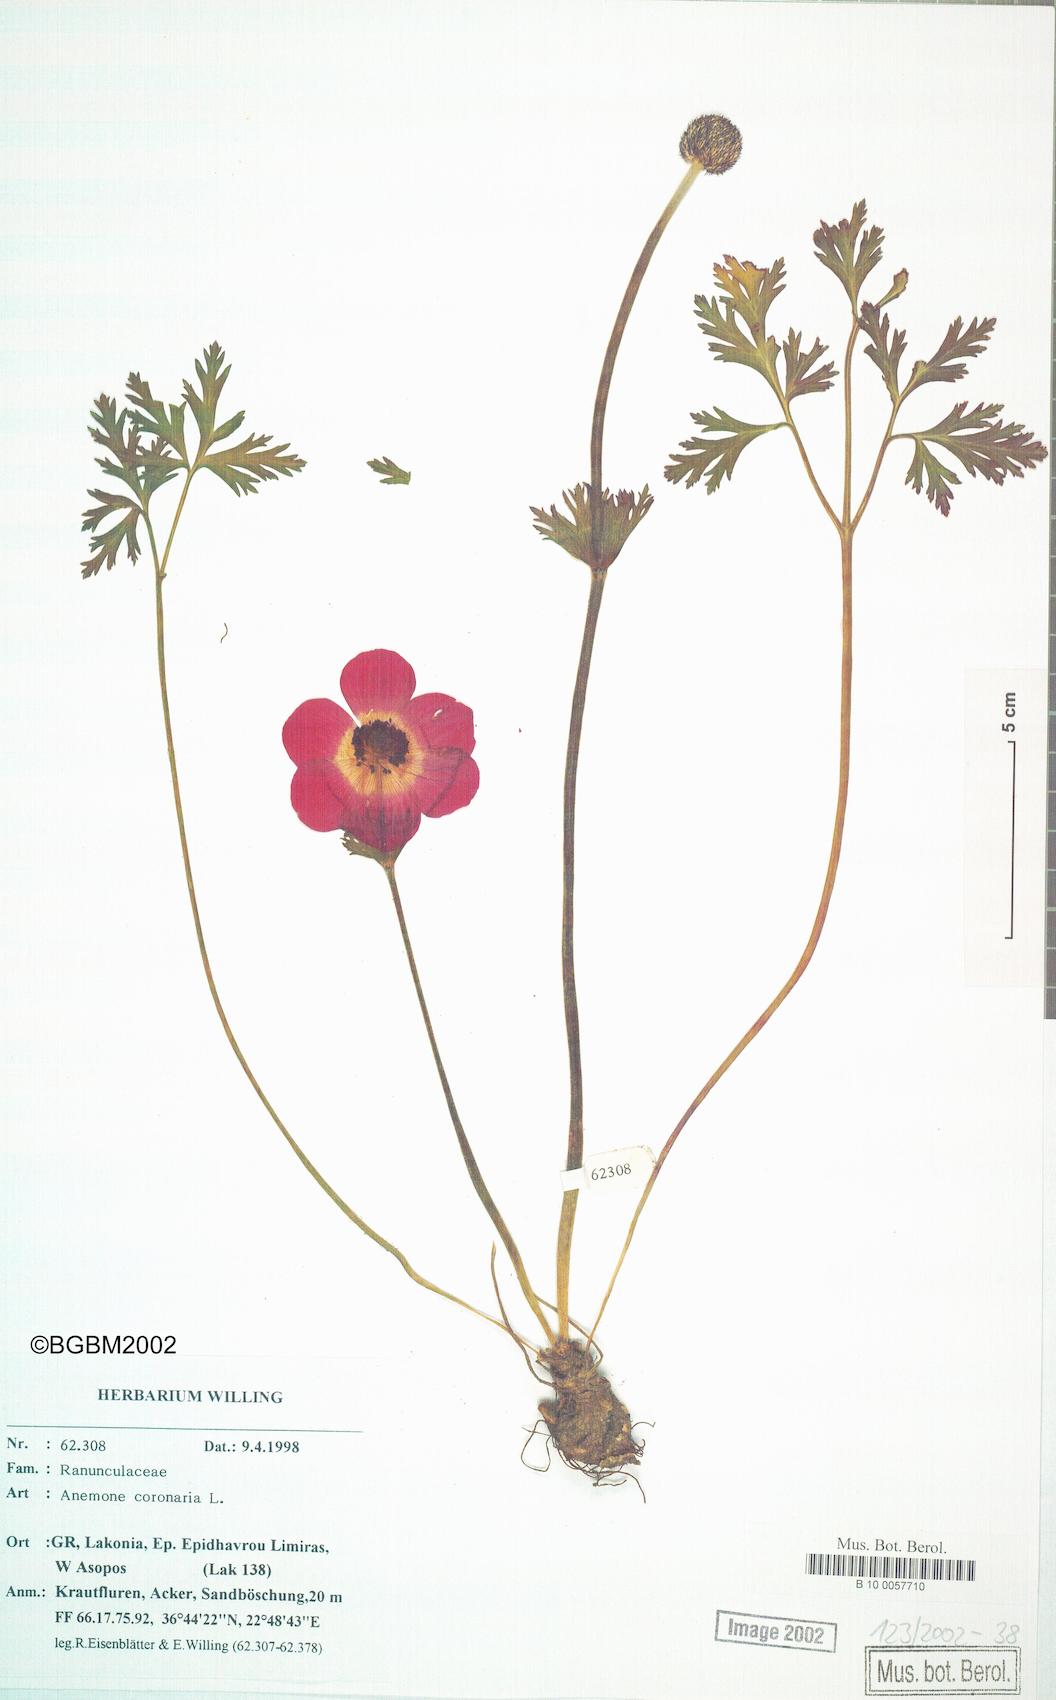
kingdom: Plantae
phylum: Tracheophyta
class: Magnoliopsida
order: Ranunculales
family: Ranunculaceae
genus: Anemone
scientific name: Anemone coronaria
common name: Poppy anemone
